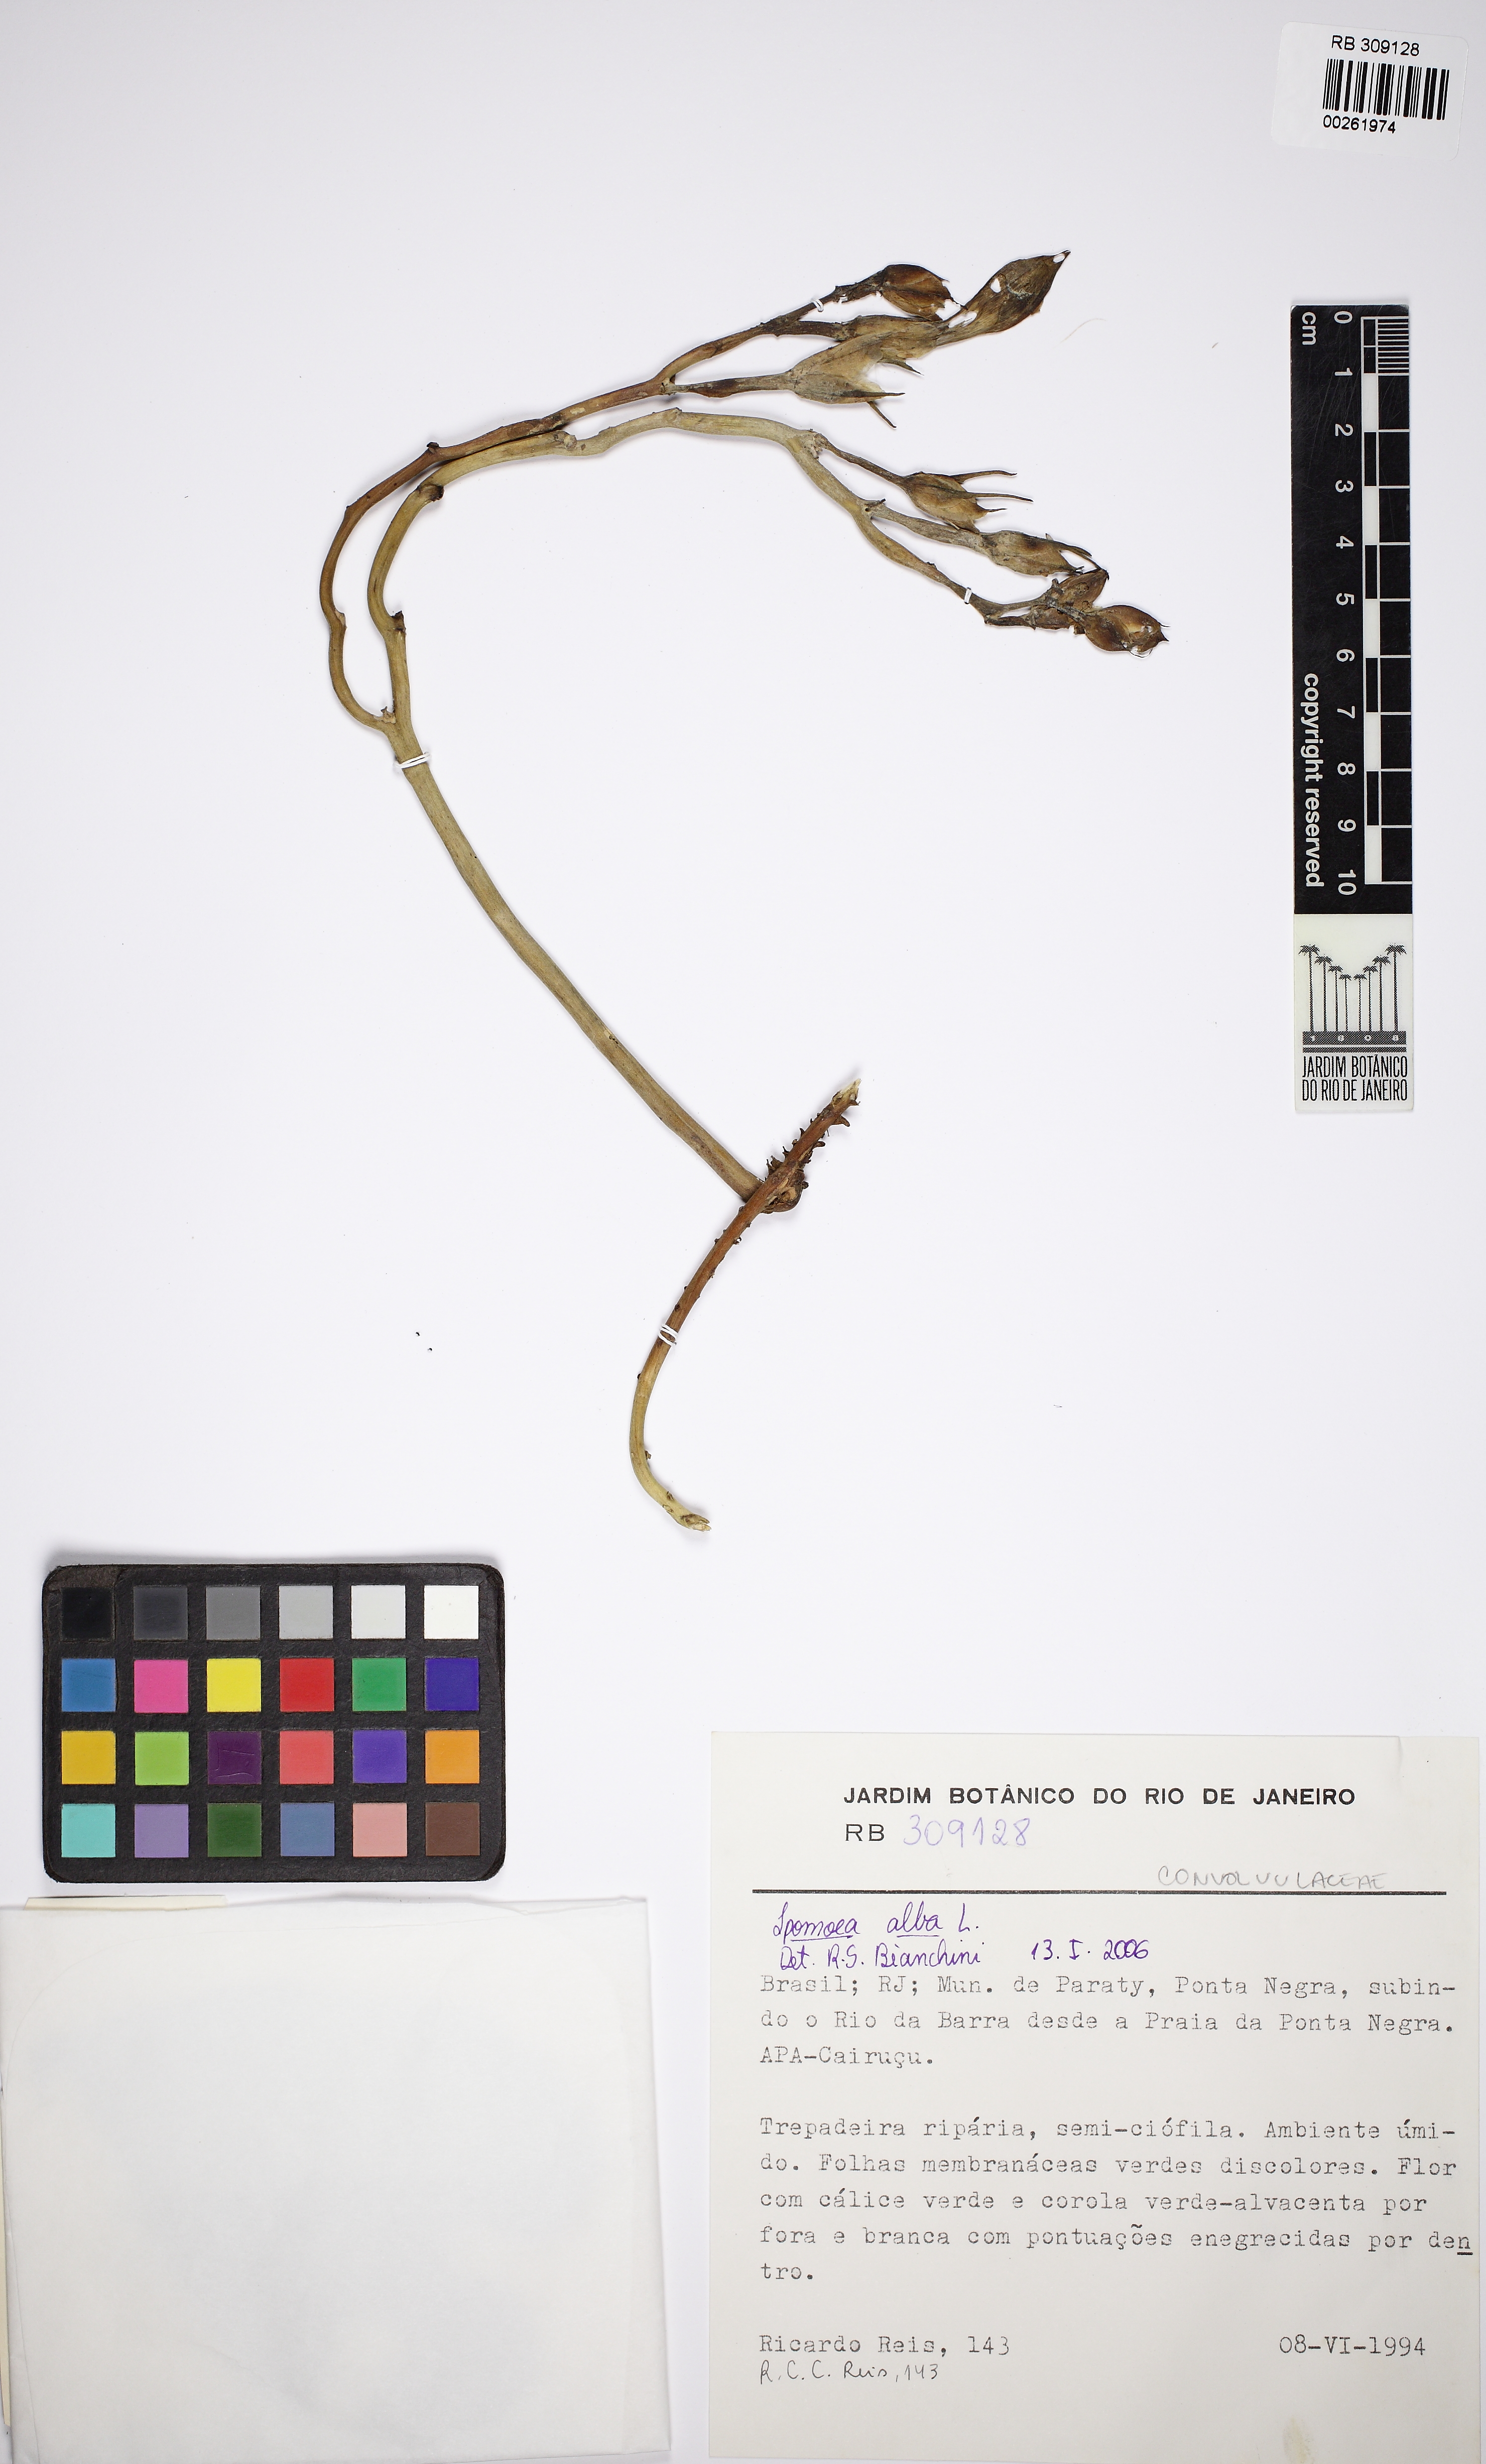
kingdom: Plantae
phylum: Tracheophyta
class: Magnoliopsida
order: Solanales
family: Convolvulaceae
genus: Ipomoea
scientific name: Ipomoea alba
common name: Moonflower
